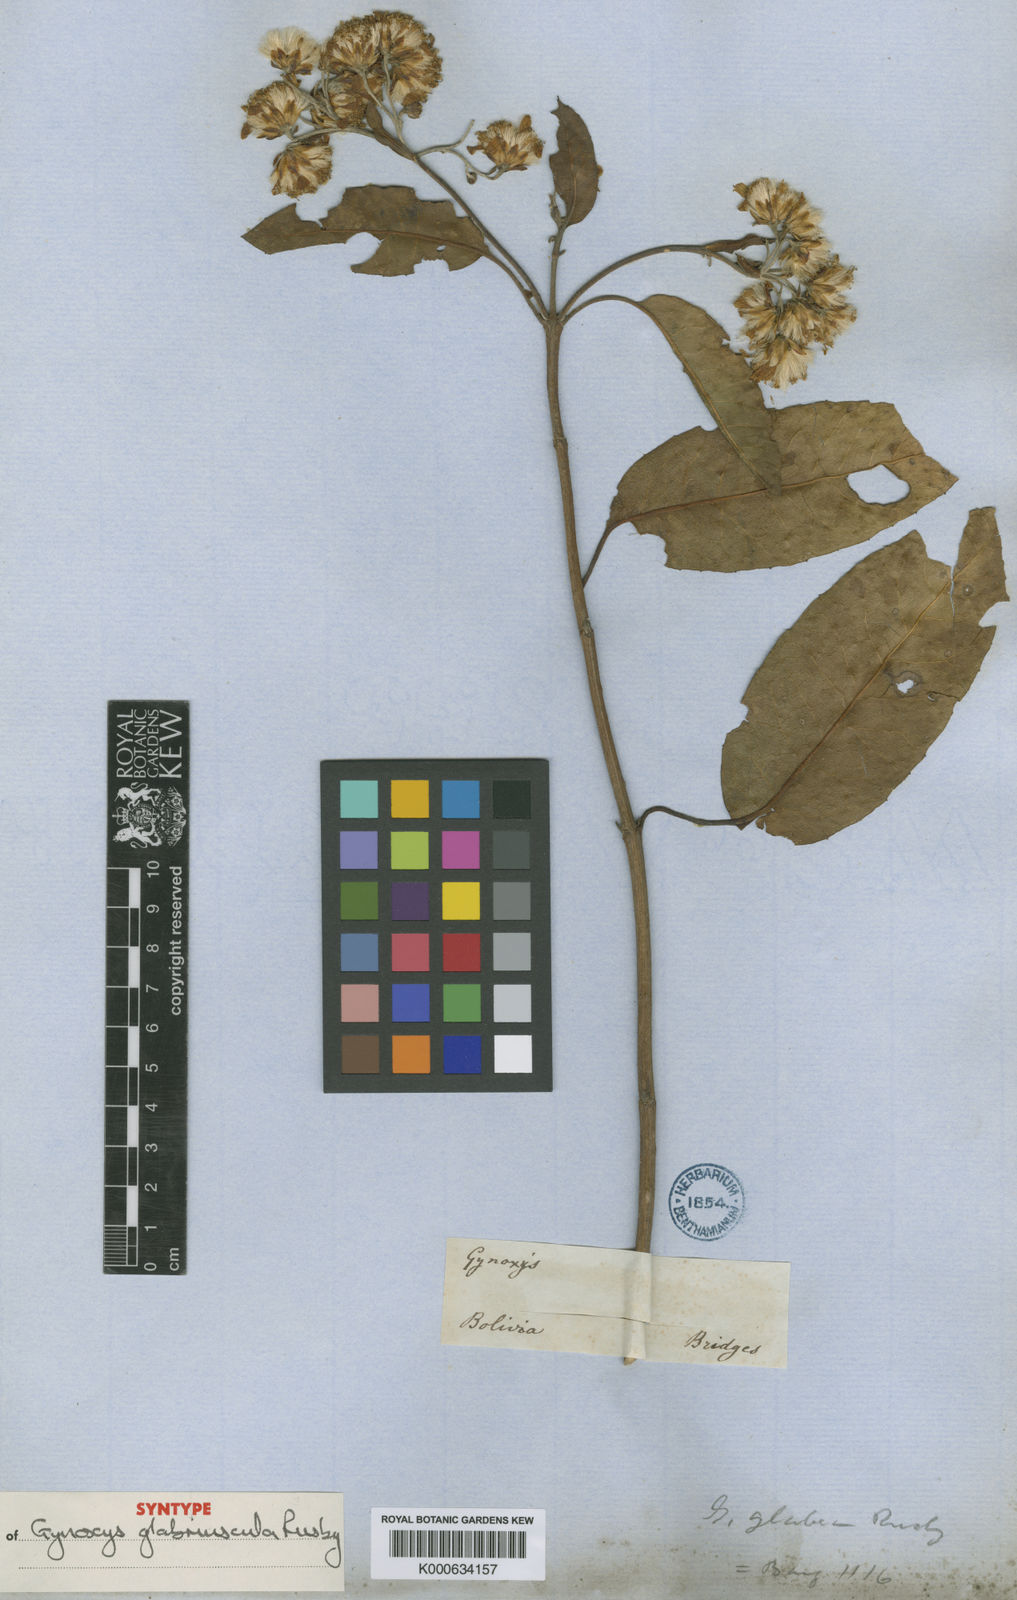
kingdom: Plantae
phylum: Tracheophyta
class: Magnoliopsida
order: Asterales
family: Asteraceae
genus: Gynoxys
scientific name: Gynoxys psilophylla
